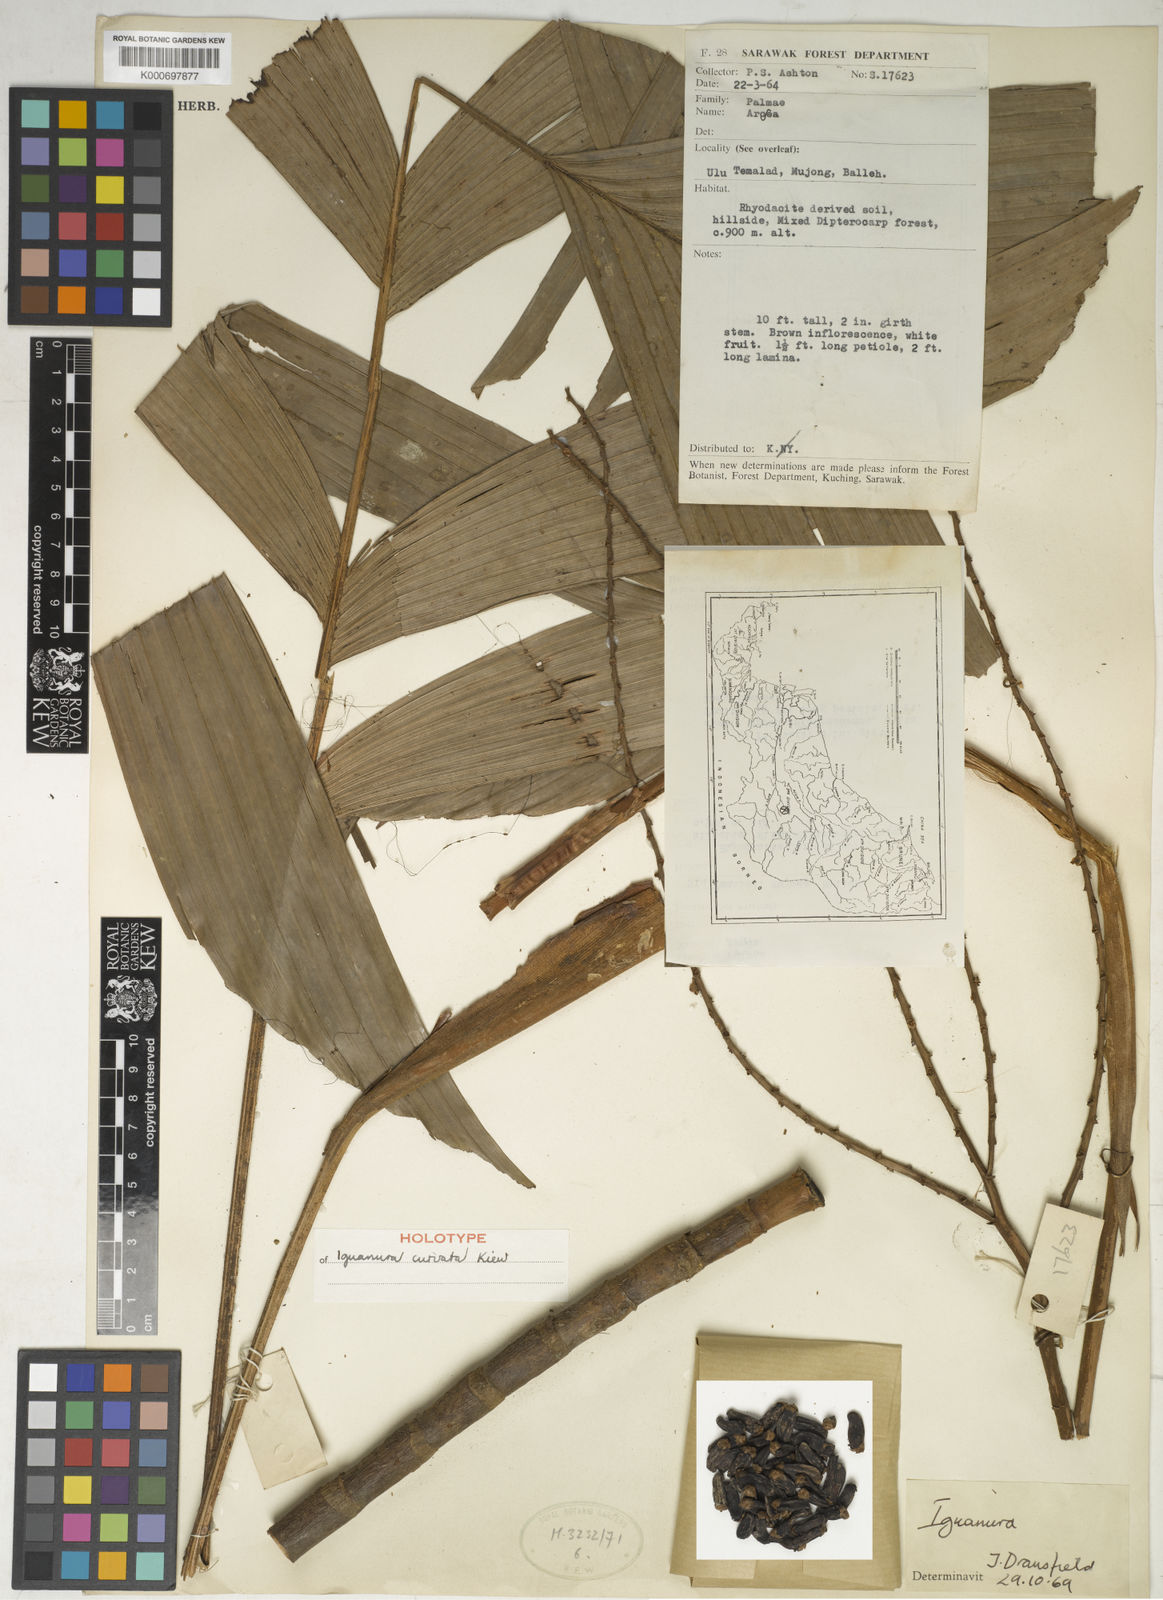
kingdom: Plantae
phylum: Tracheophyta
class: Liliopsida
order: Arecales
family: Arecaceae
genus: Iguanura
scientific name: Iguanura curvata
